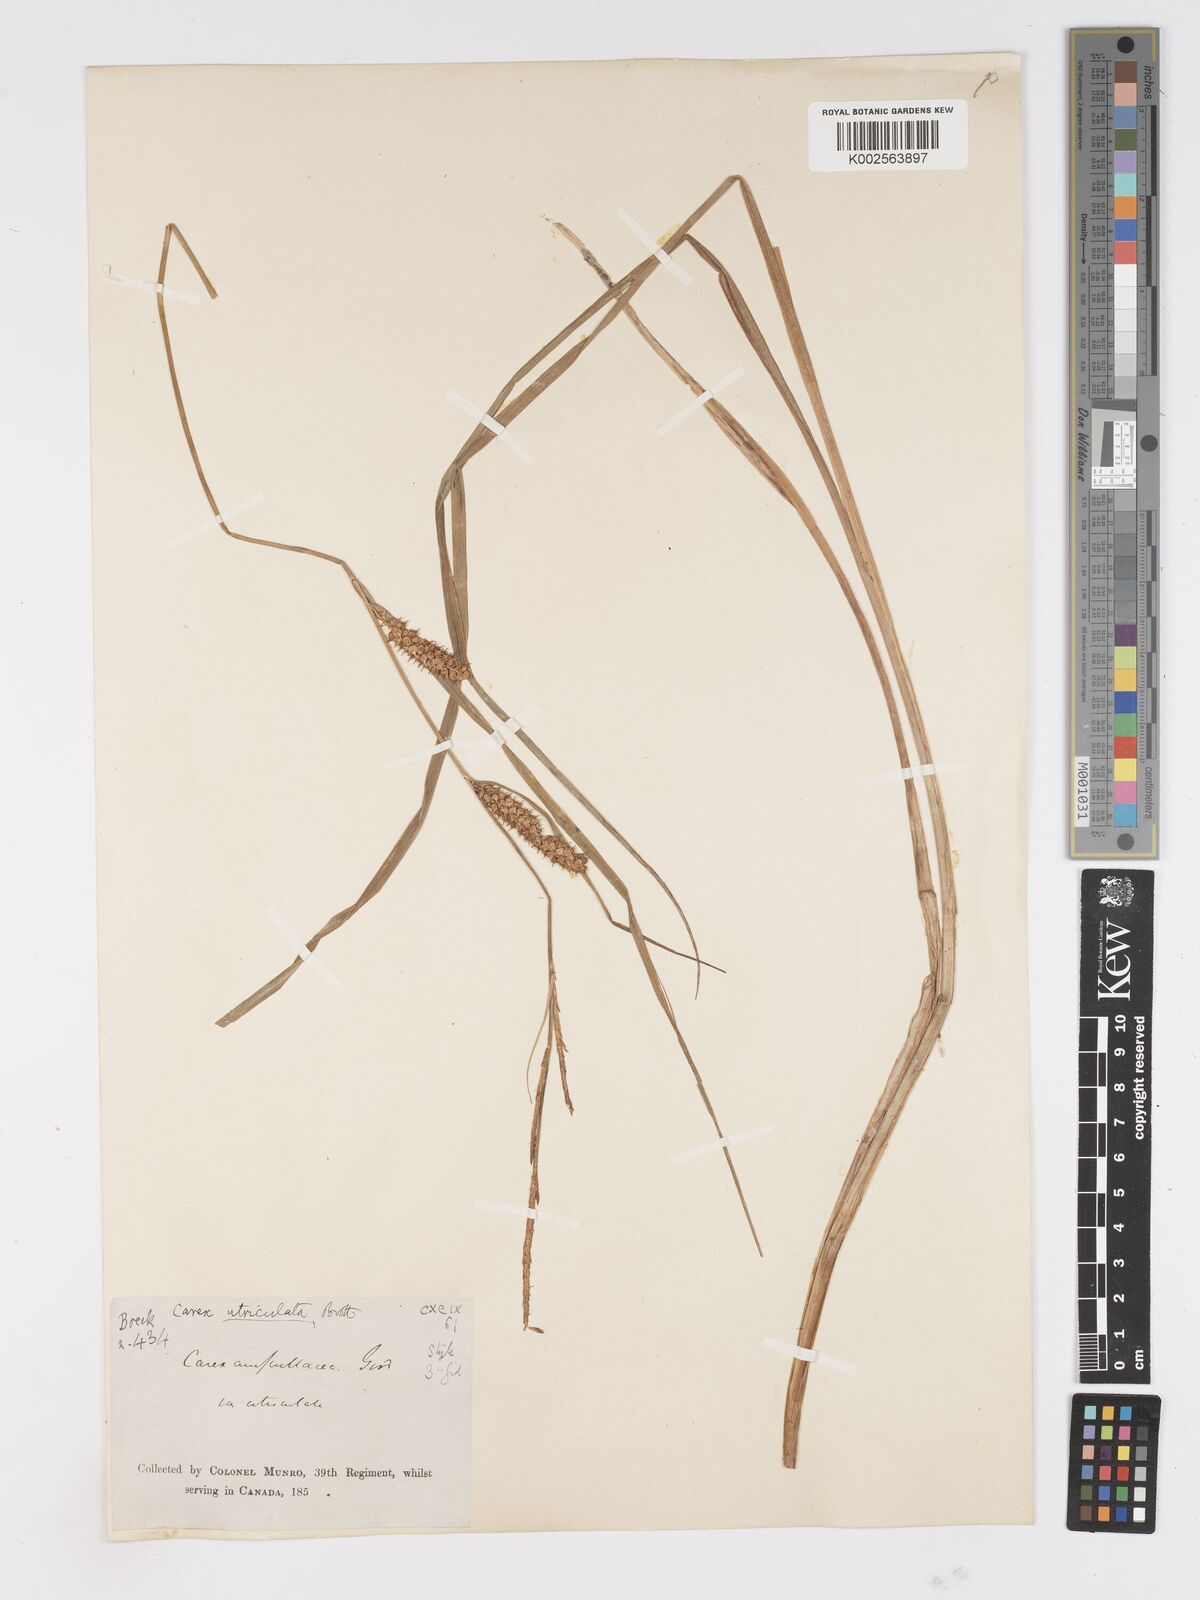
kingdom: Plantae
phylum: Tracheophyta
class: Liliopsida
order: Poales
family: Cyperaceae
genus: Carex
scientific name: Carex rostrata
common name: Bottle sedge
